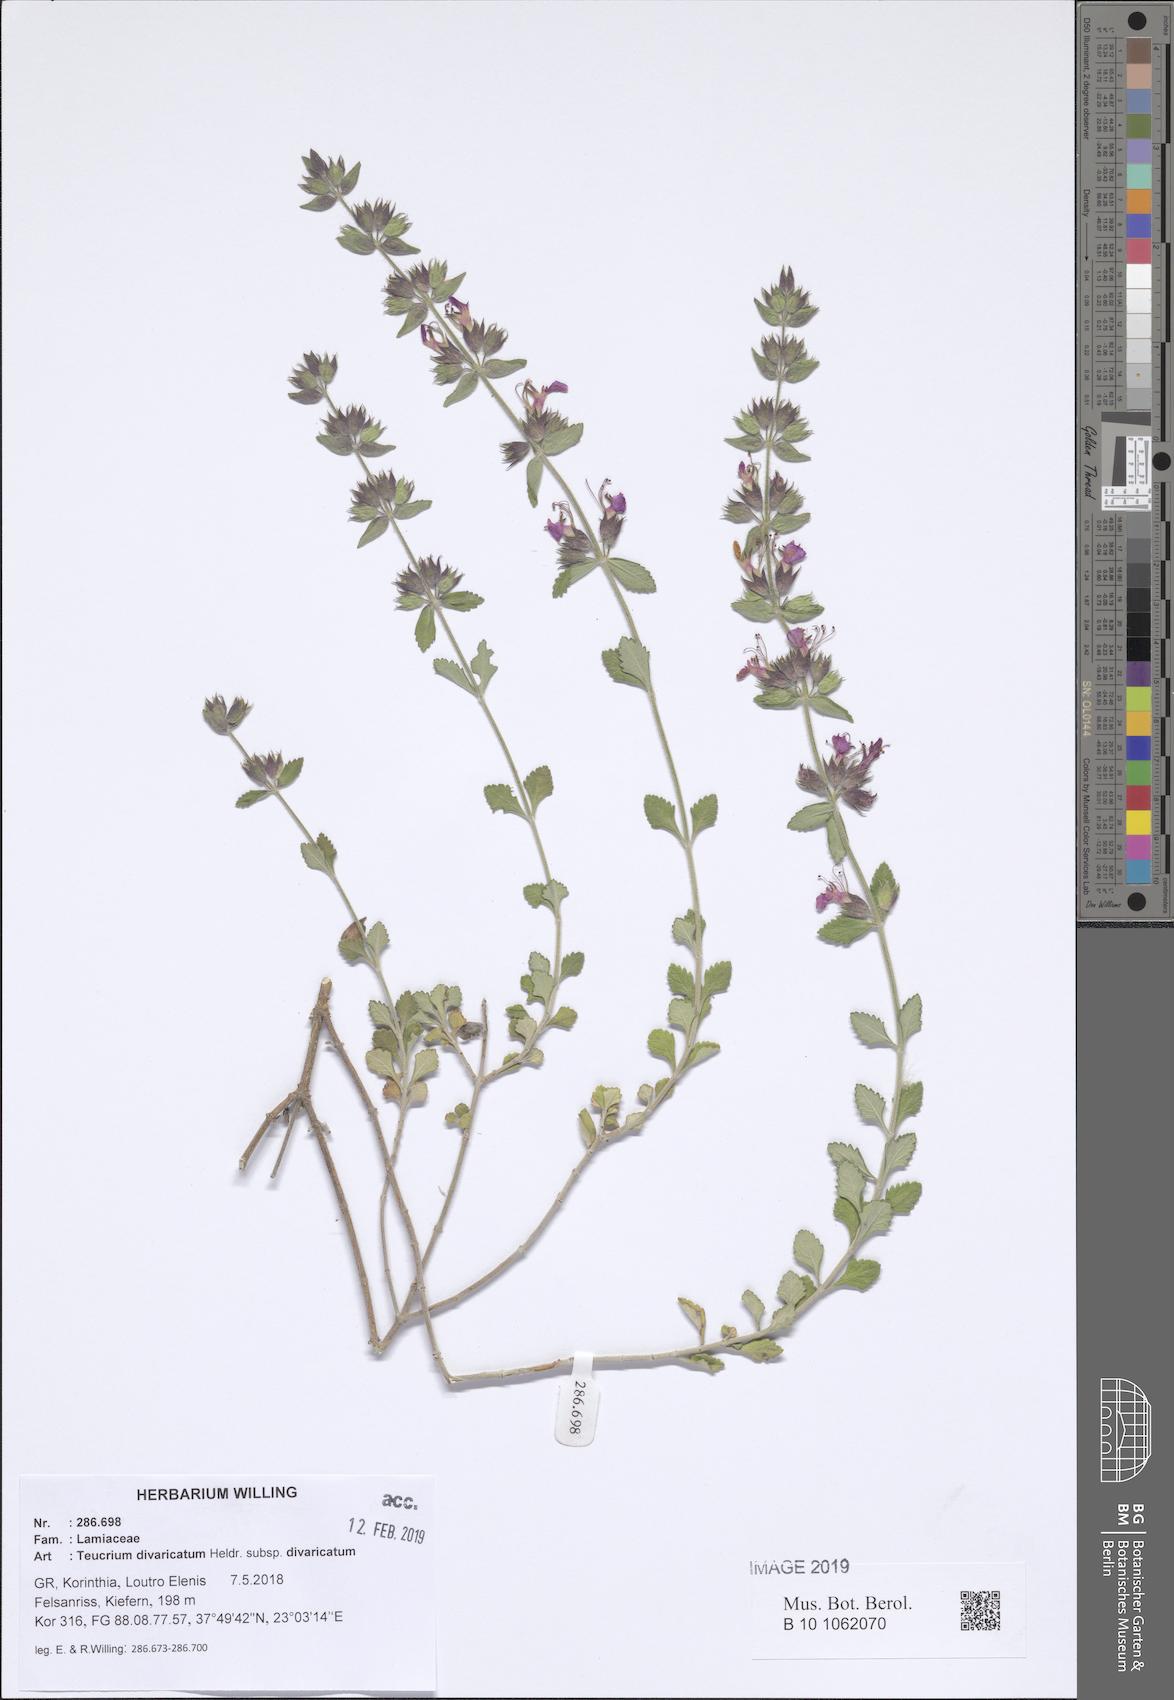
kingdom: Plantae
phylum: Tracheophyta
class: Magnoliopsida
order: Lamiales
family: Lamiaceae
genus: Teucrium
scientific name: Teucrium divaricatum
